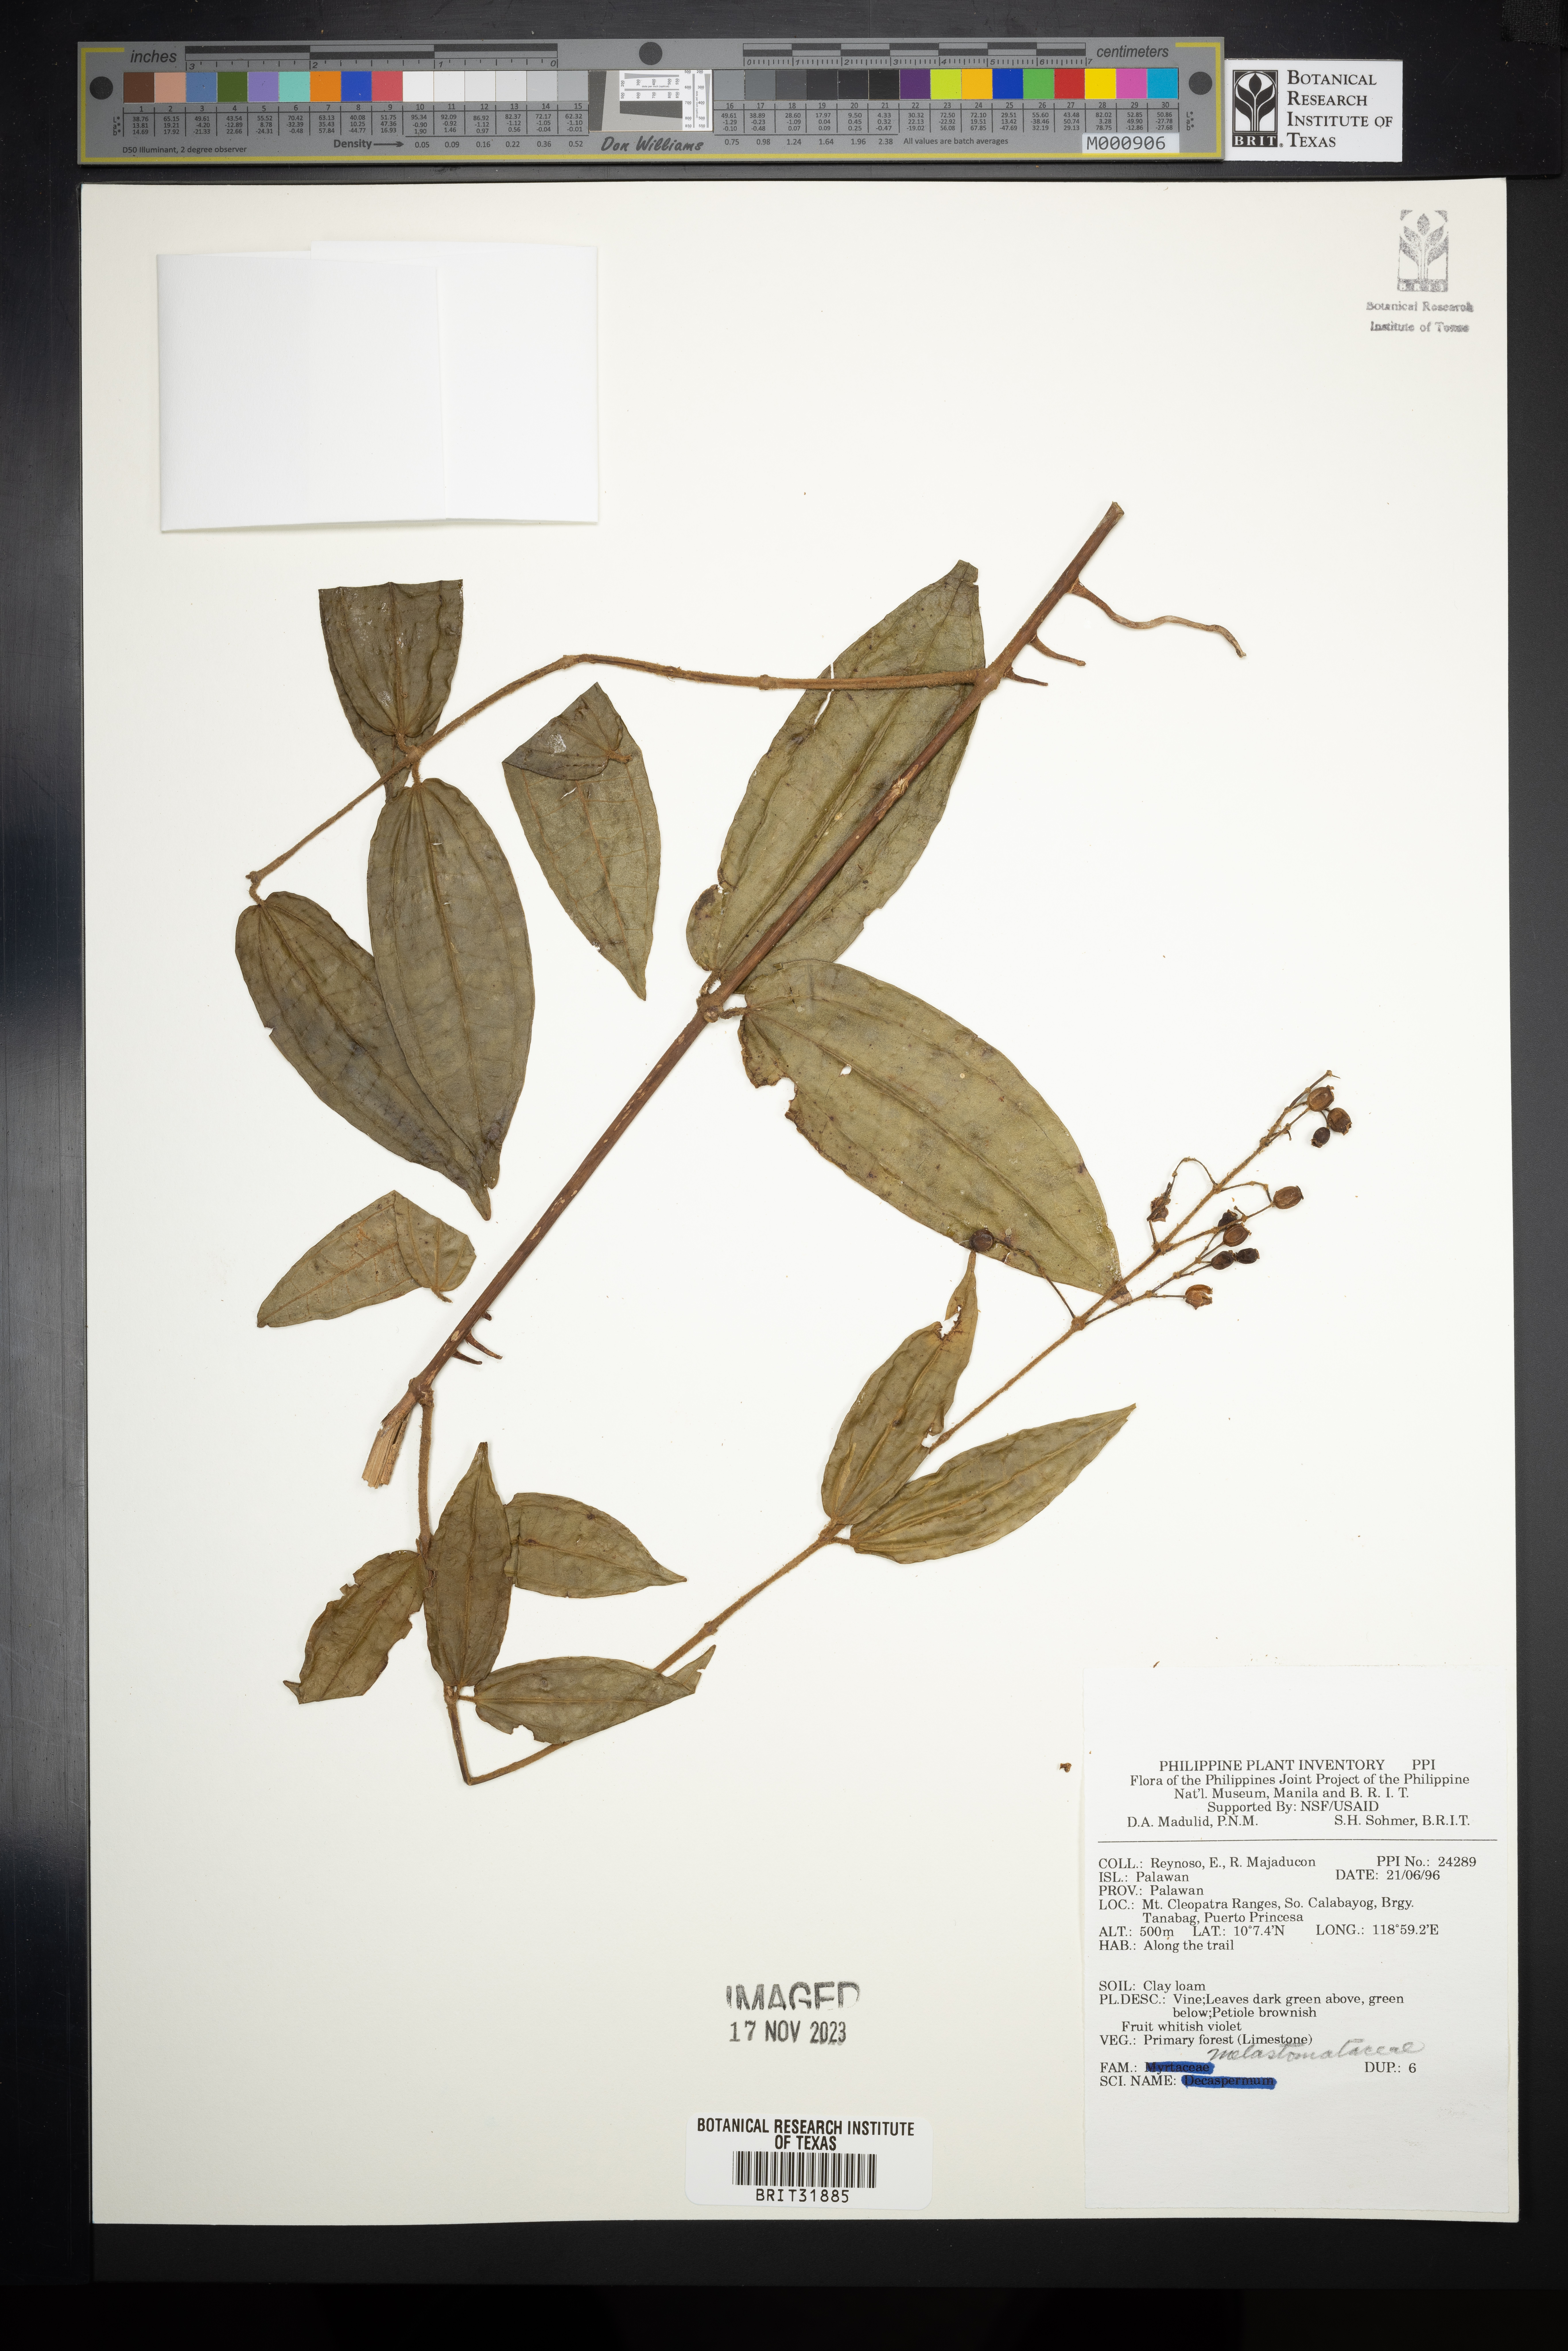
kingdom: Plantae
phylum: Tracheophyta
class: Magnoliopsida
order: Myrtales
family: Melastomataceae
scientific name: Melastomataceae
